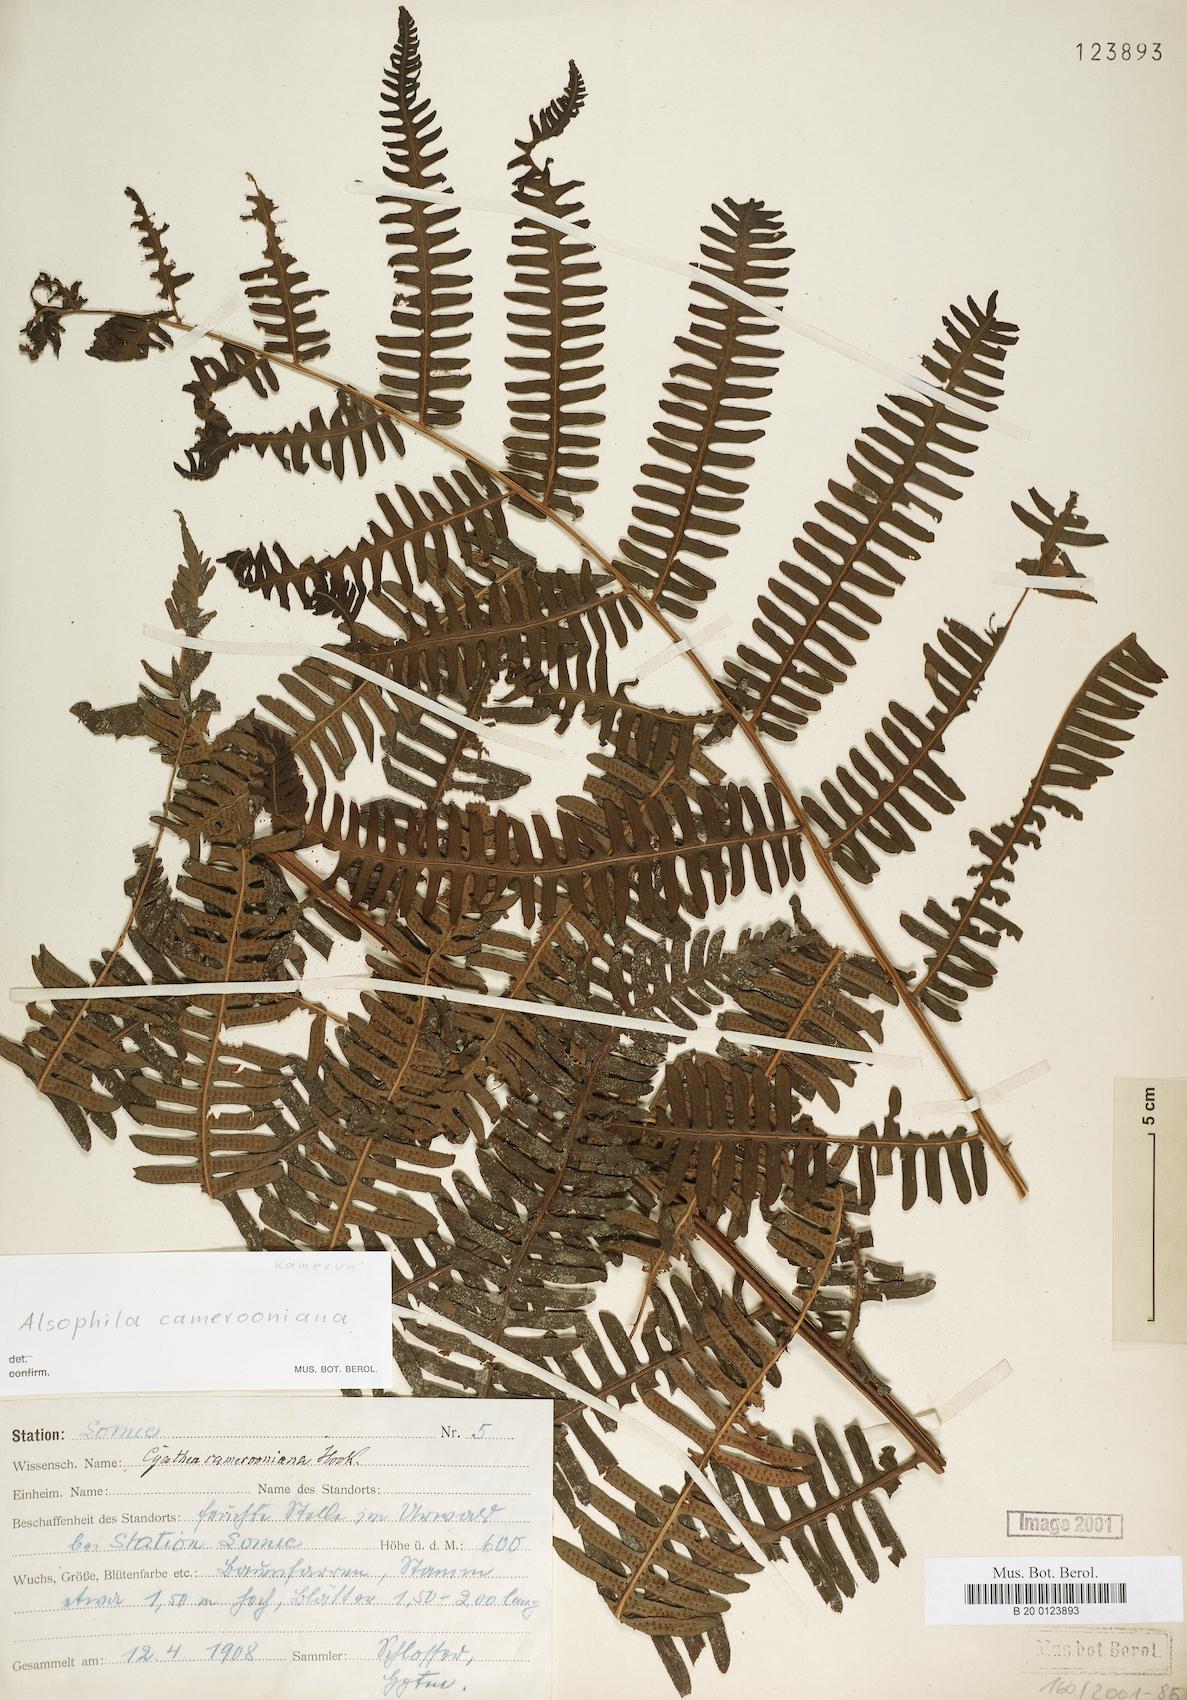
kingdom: Plantae
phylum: Tracheophyta
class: Polypodiopsida
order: Cyatheales
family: Cyatheaceae
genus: Alsophila
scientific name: Alsophila camerooniana
